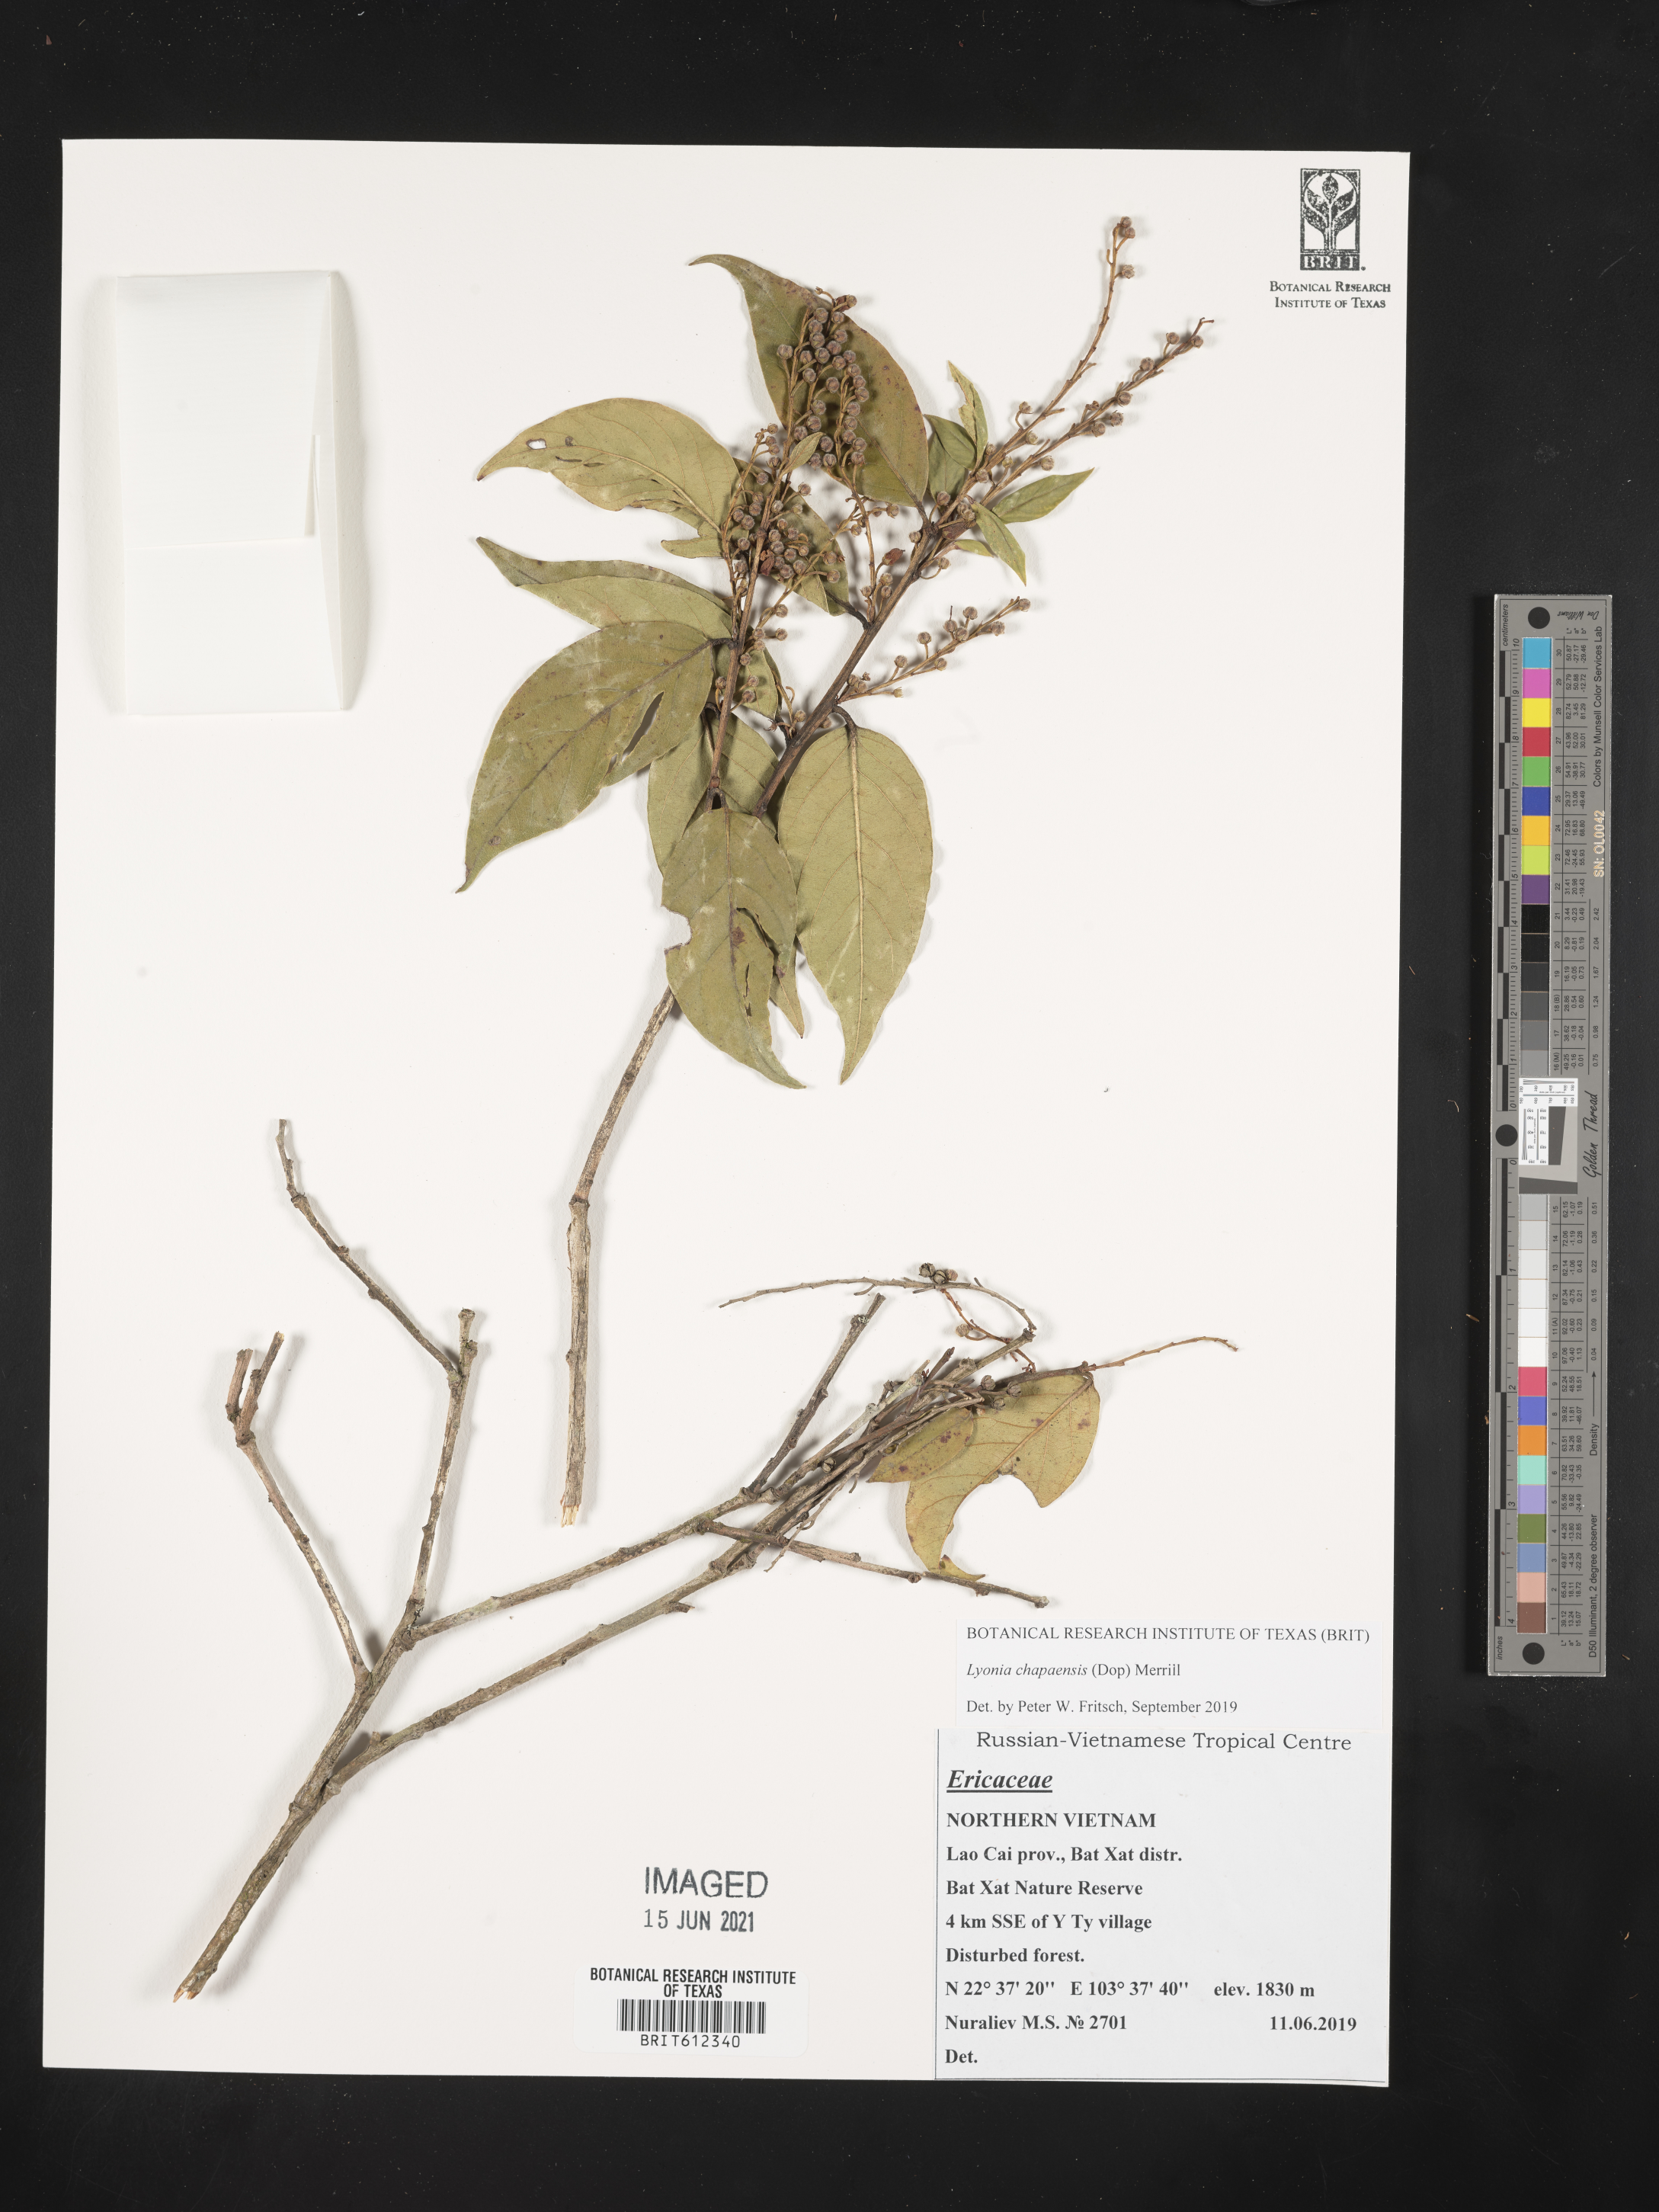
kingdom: Plantae
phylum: Tracheophyta
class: Magnoliopsida
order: Ericales
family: Ericaceae
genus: Lyonia
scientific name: Lyonia chapaensis
